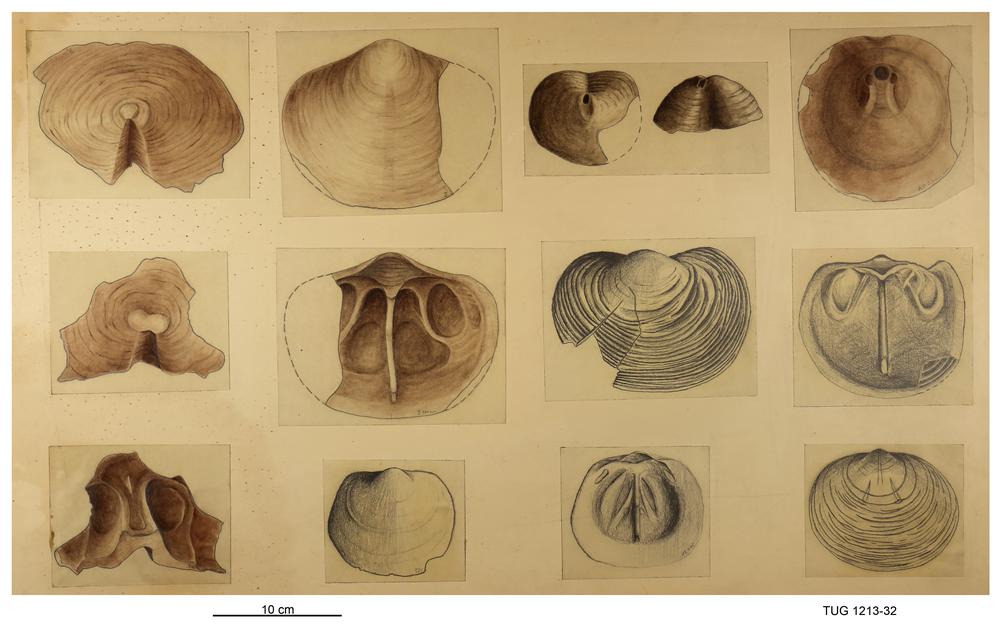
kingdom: Animalia
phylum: Brachiopoda
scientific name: Brachiopoda
